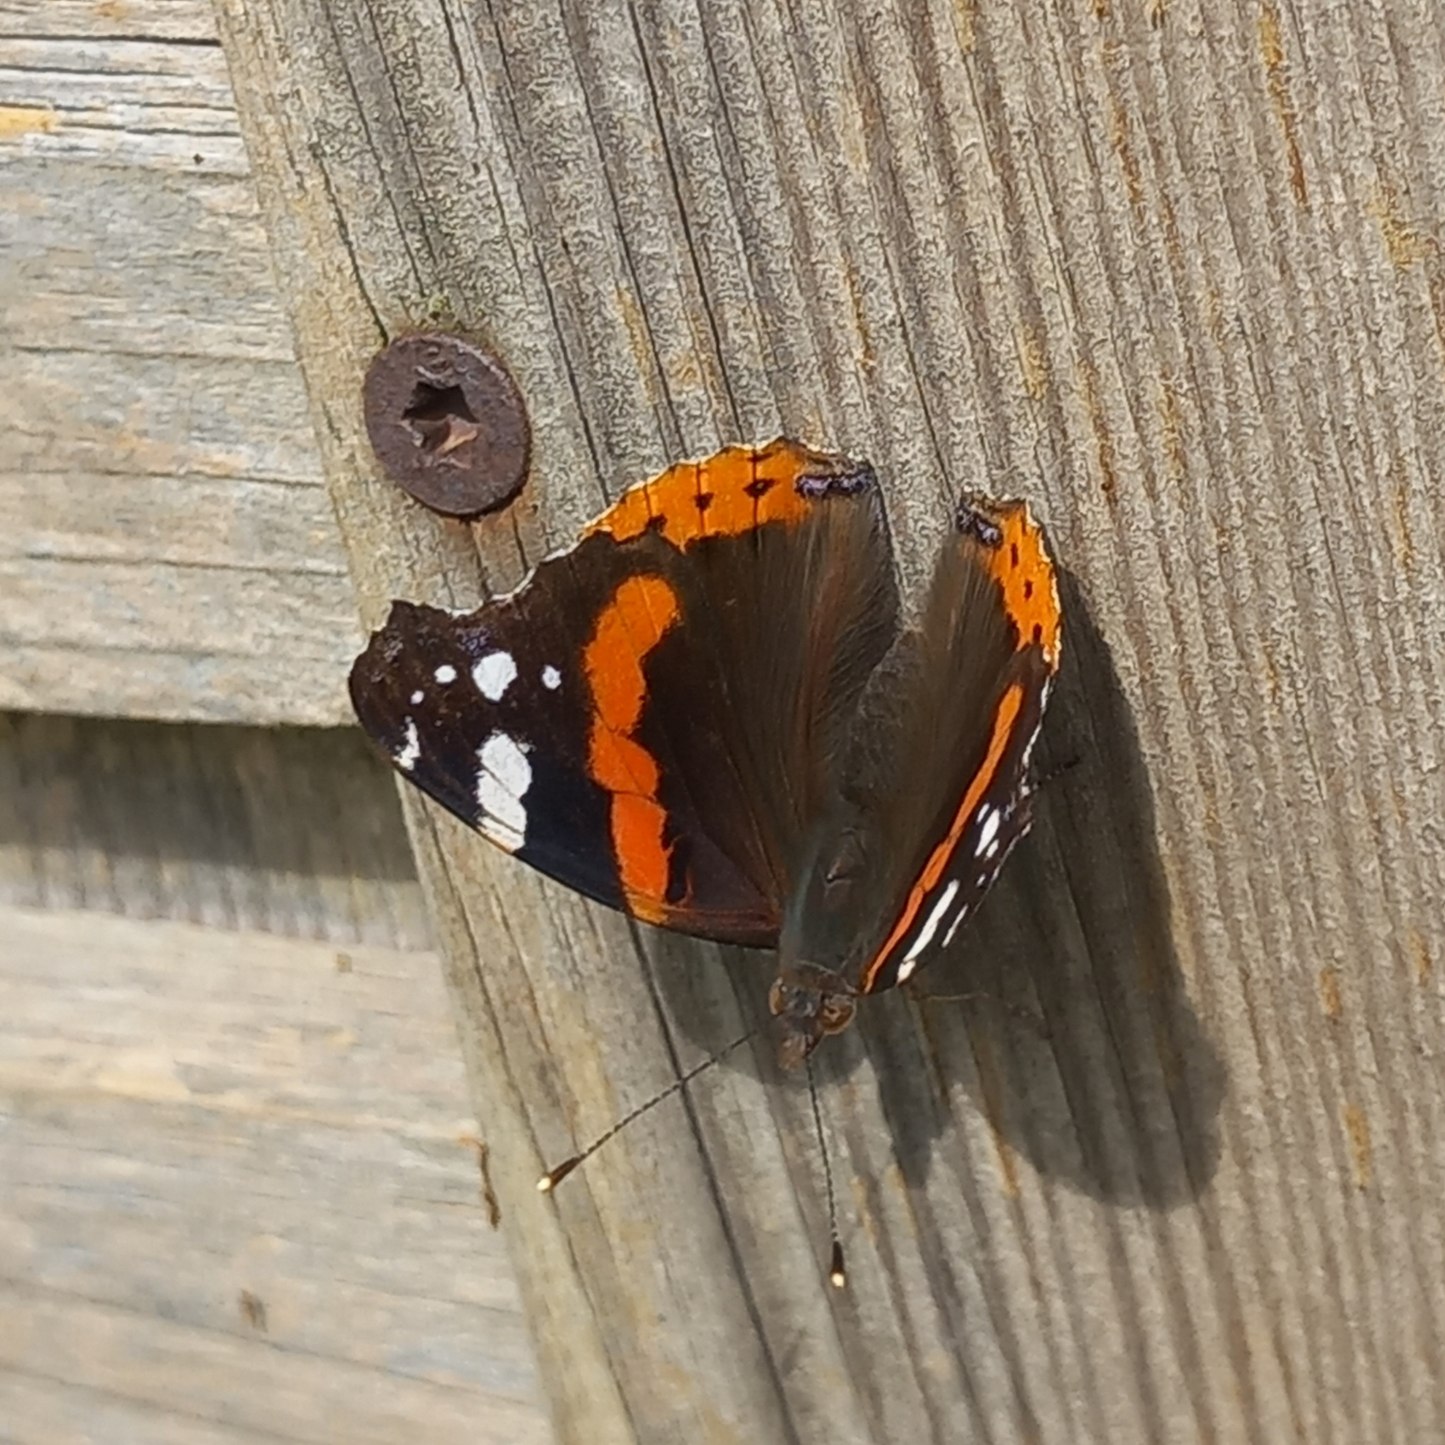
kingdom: Animalia
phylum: Arthropoda
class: Insecta
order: Lepidoptera
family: Nymphalidae
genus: Vanessa
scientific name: Vanessa atalanta
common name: Admiral
